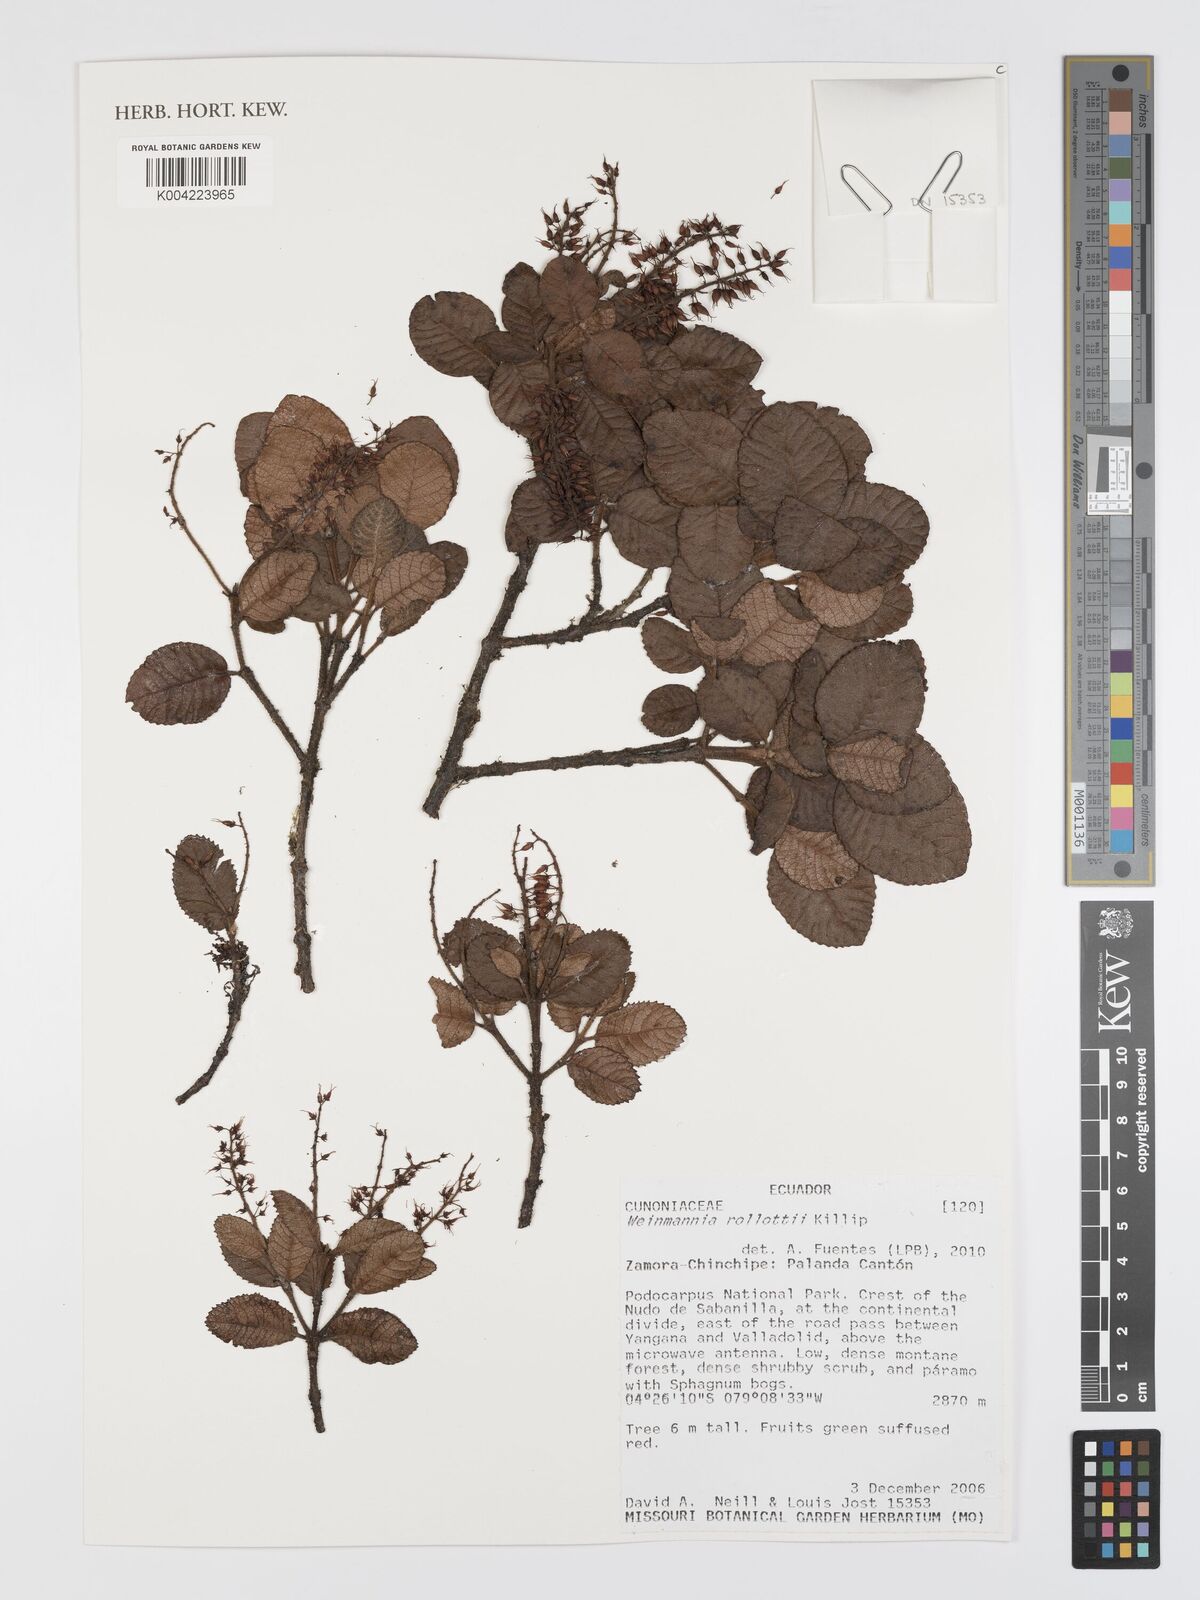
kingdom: Plantae
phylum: Tracheophyta
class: Magnoliopsida
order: Oxalidales
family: Cunoniaceae
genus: Weinmannia
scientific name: Weinmannia rollottii
